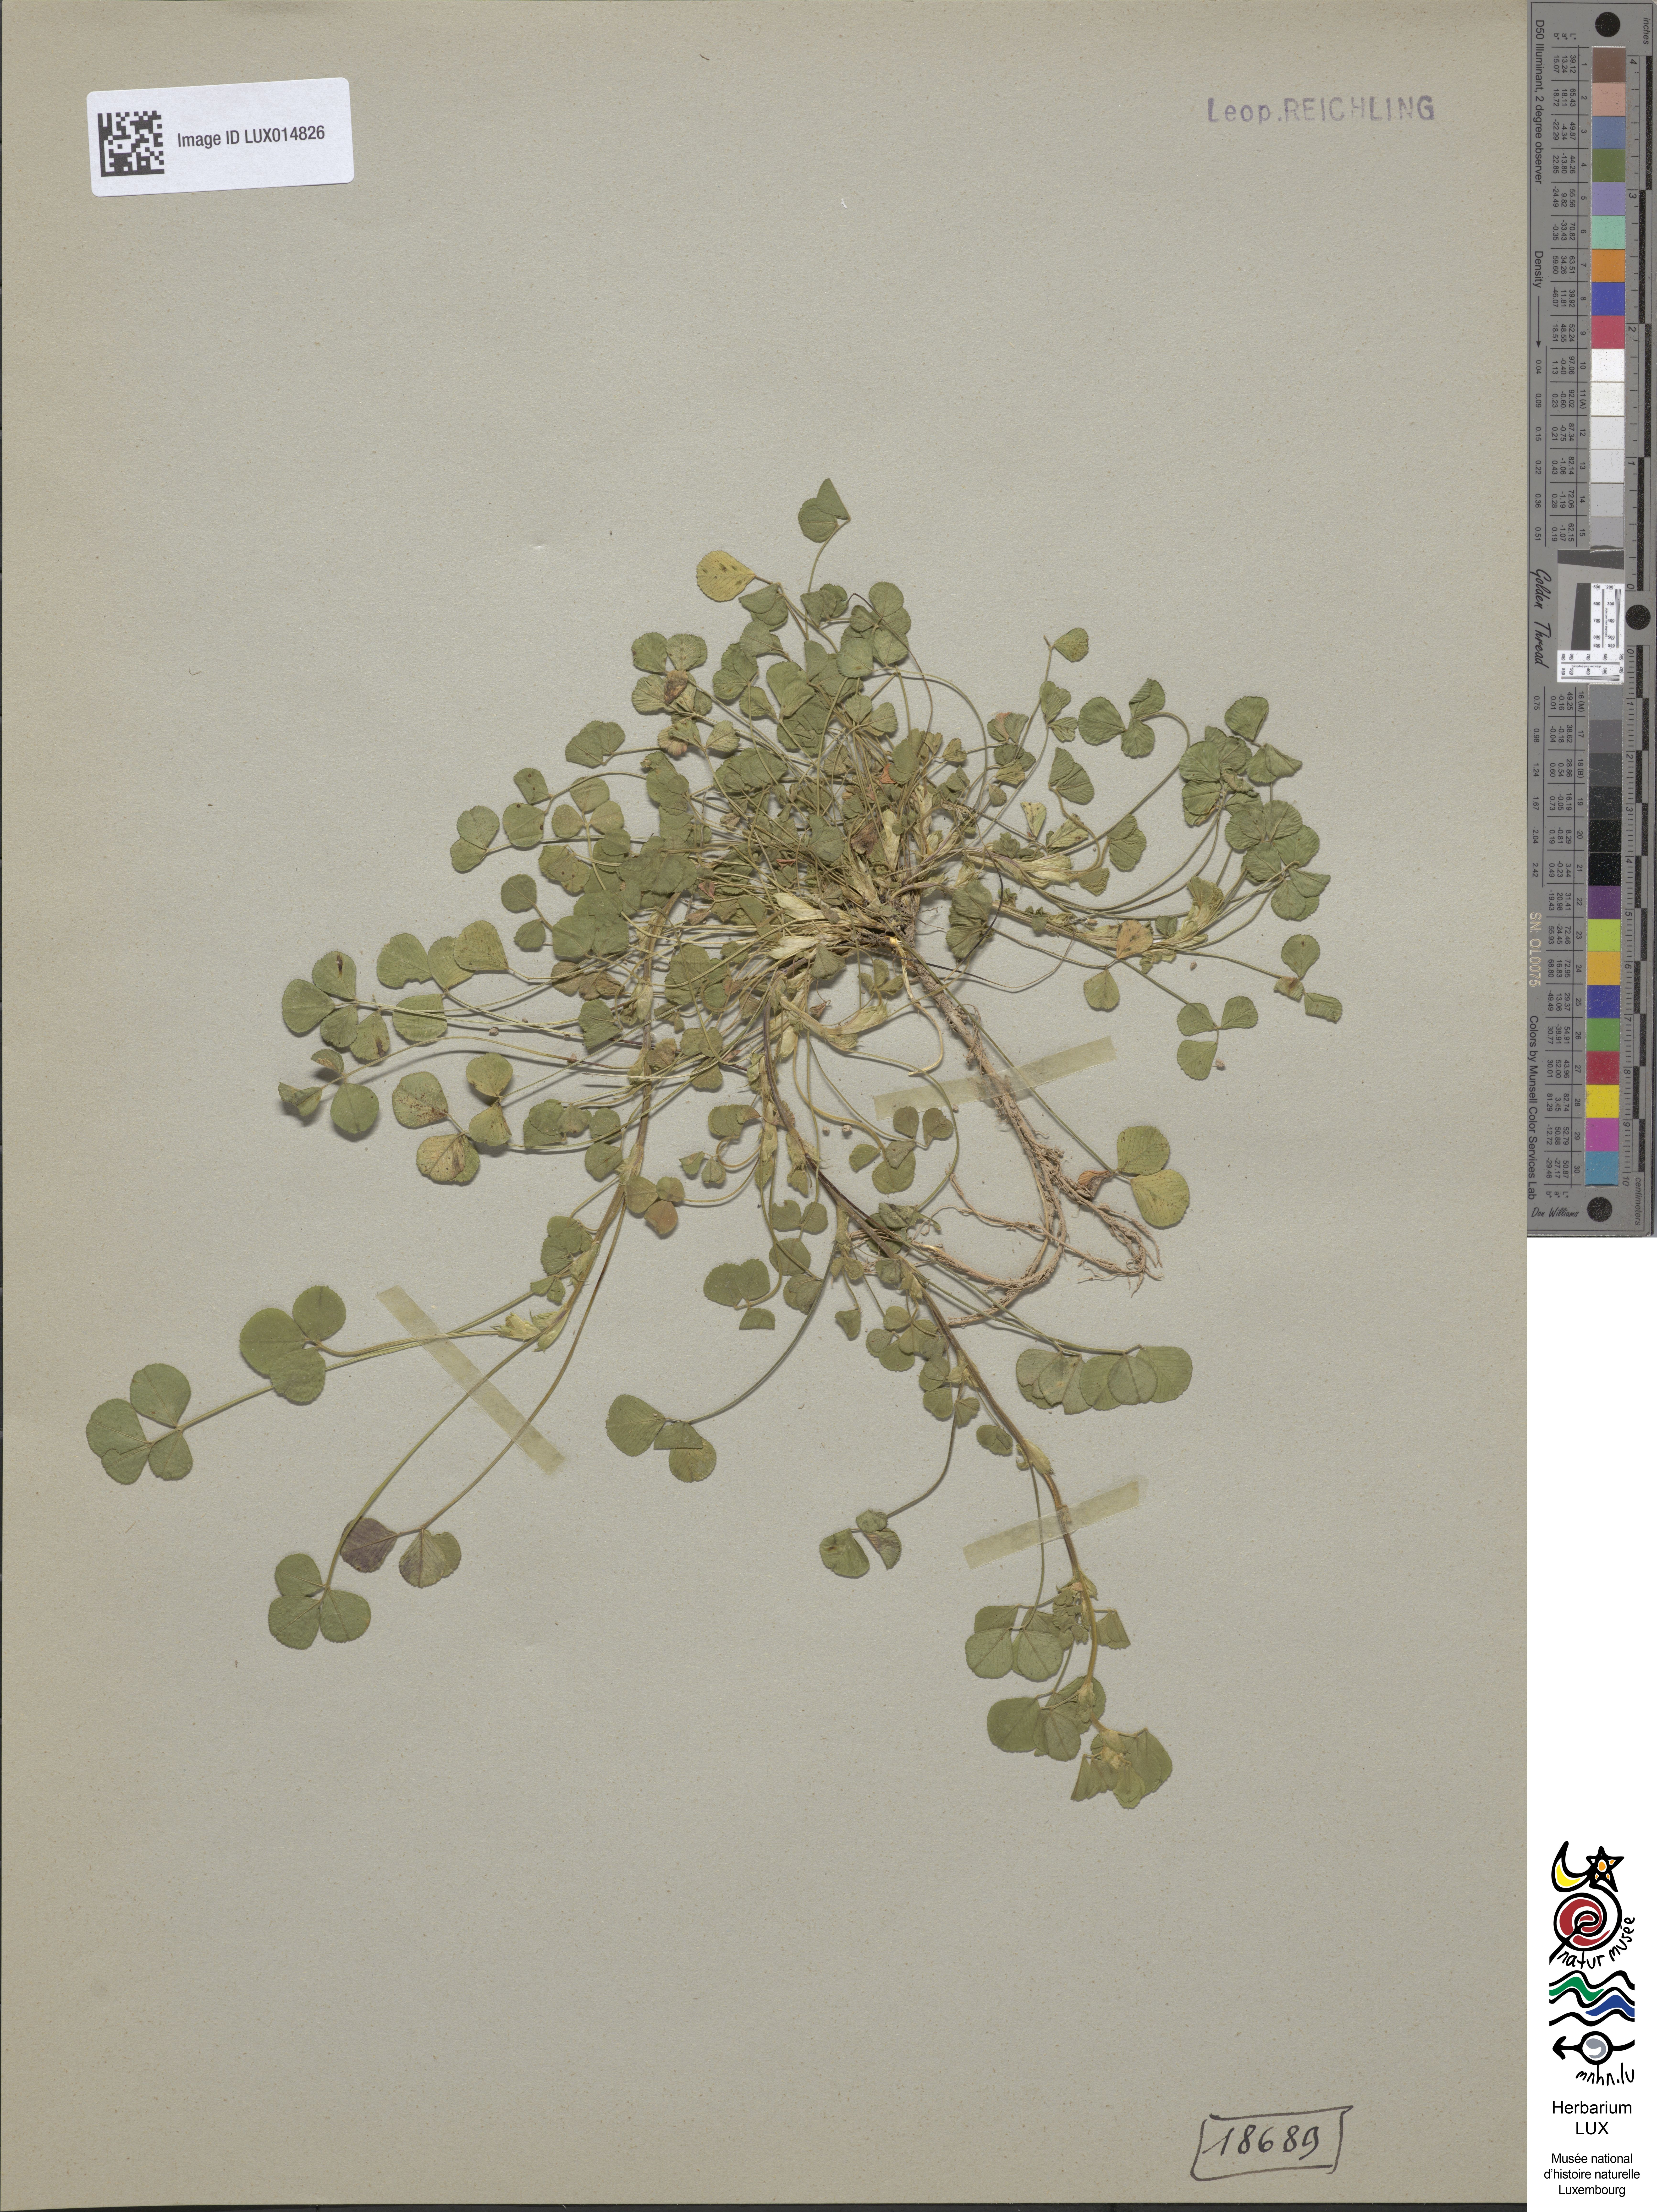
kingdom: Plantae
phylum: Tracheophyta
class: Magnoliopsida
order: Fabales
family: Fabaceae
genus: Medicago
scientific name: Medicago lupulina
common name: Black medick
